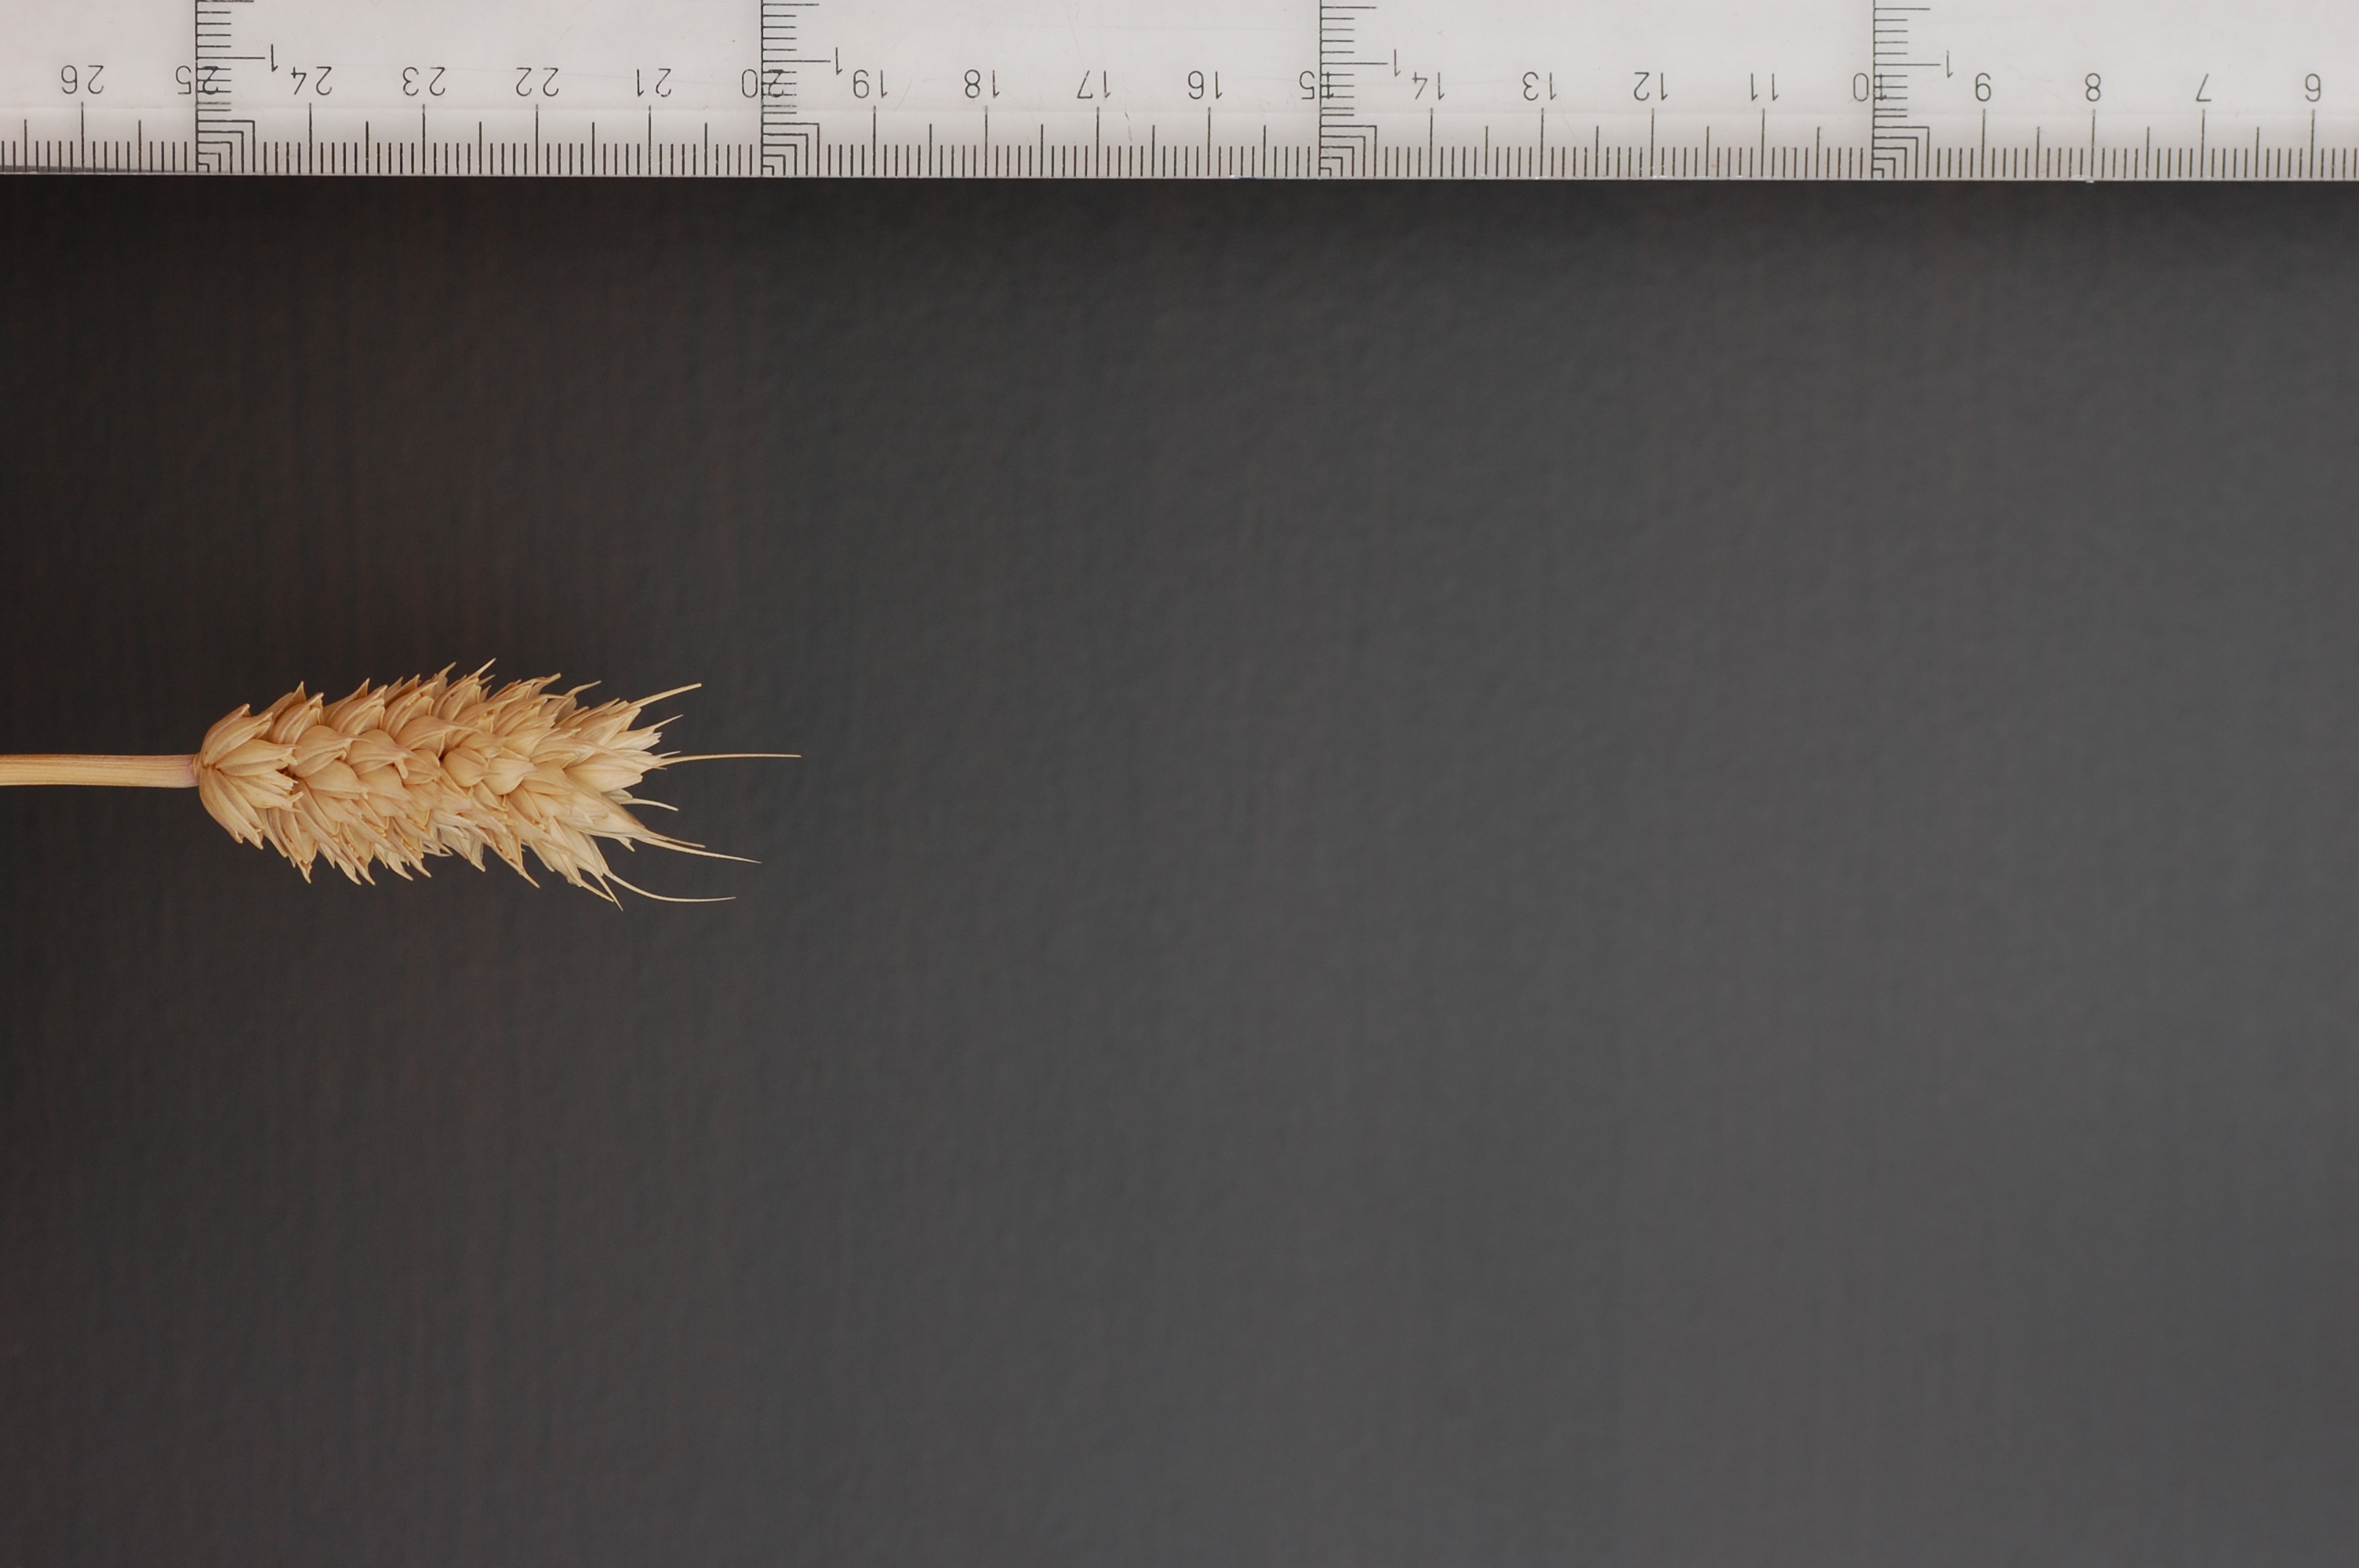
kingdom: Plantae
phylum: Tracheophyta
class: Liliopsida
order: Poales
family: Poaceae
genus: Triticum
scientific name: Triticum aestivum
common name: Common wheat
